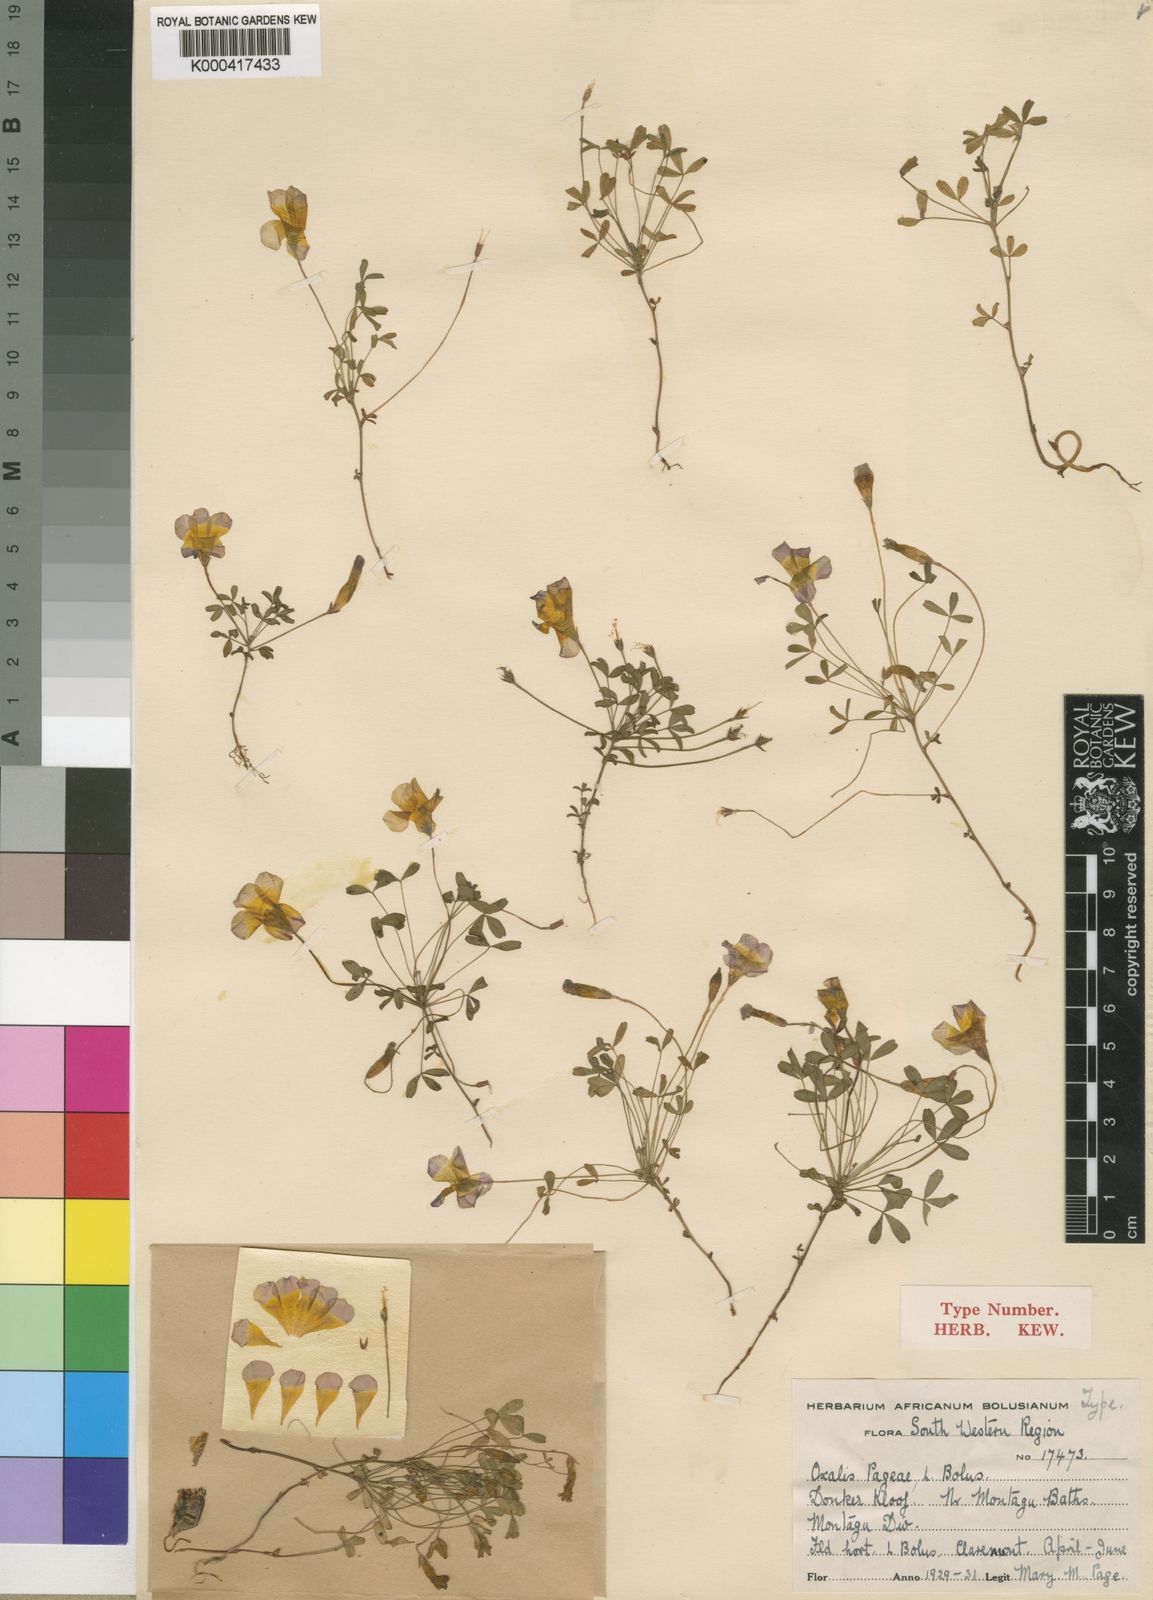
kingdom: Plantae
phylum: Tracheophyta
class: Magnoliopsida
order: Oxalidales
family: Oxalidaceae
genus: Oxalis
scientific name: Oxalis ciliaris
